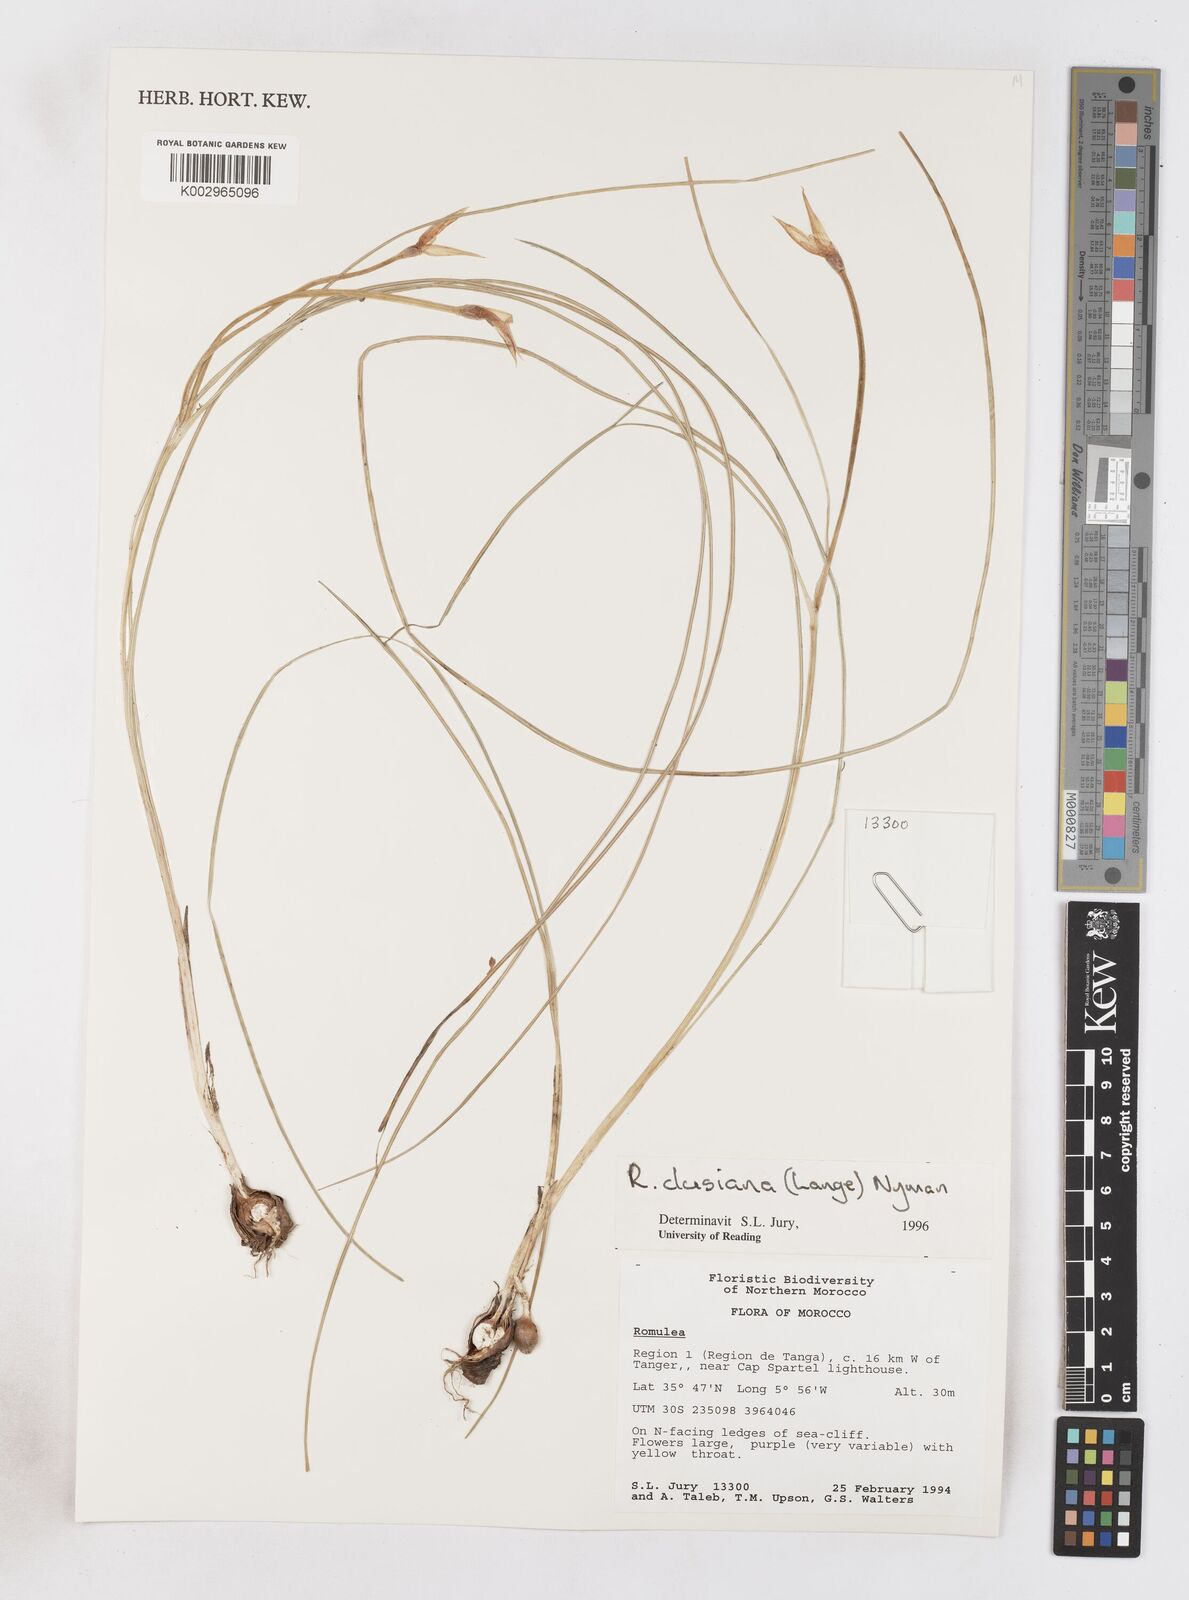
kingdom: Plantae
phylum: Tracheophyta
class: Liliopsida
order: Asparagales
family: Iridaceae
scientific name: Iridaceae
